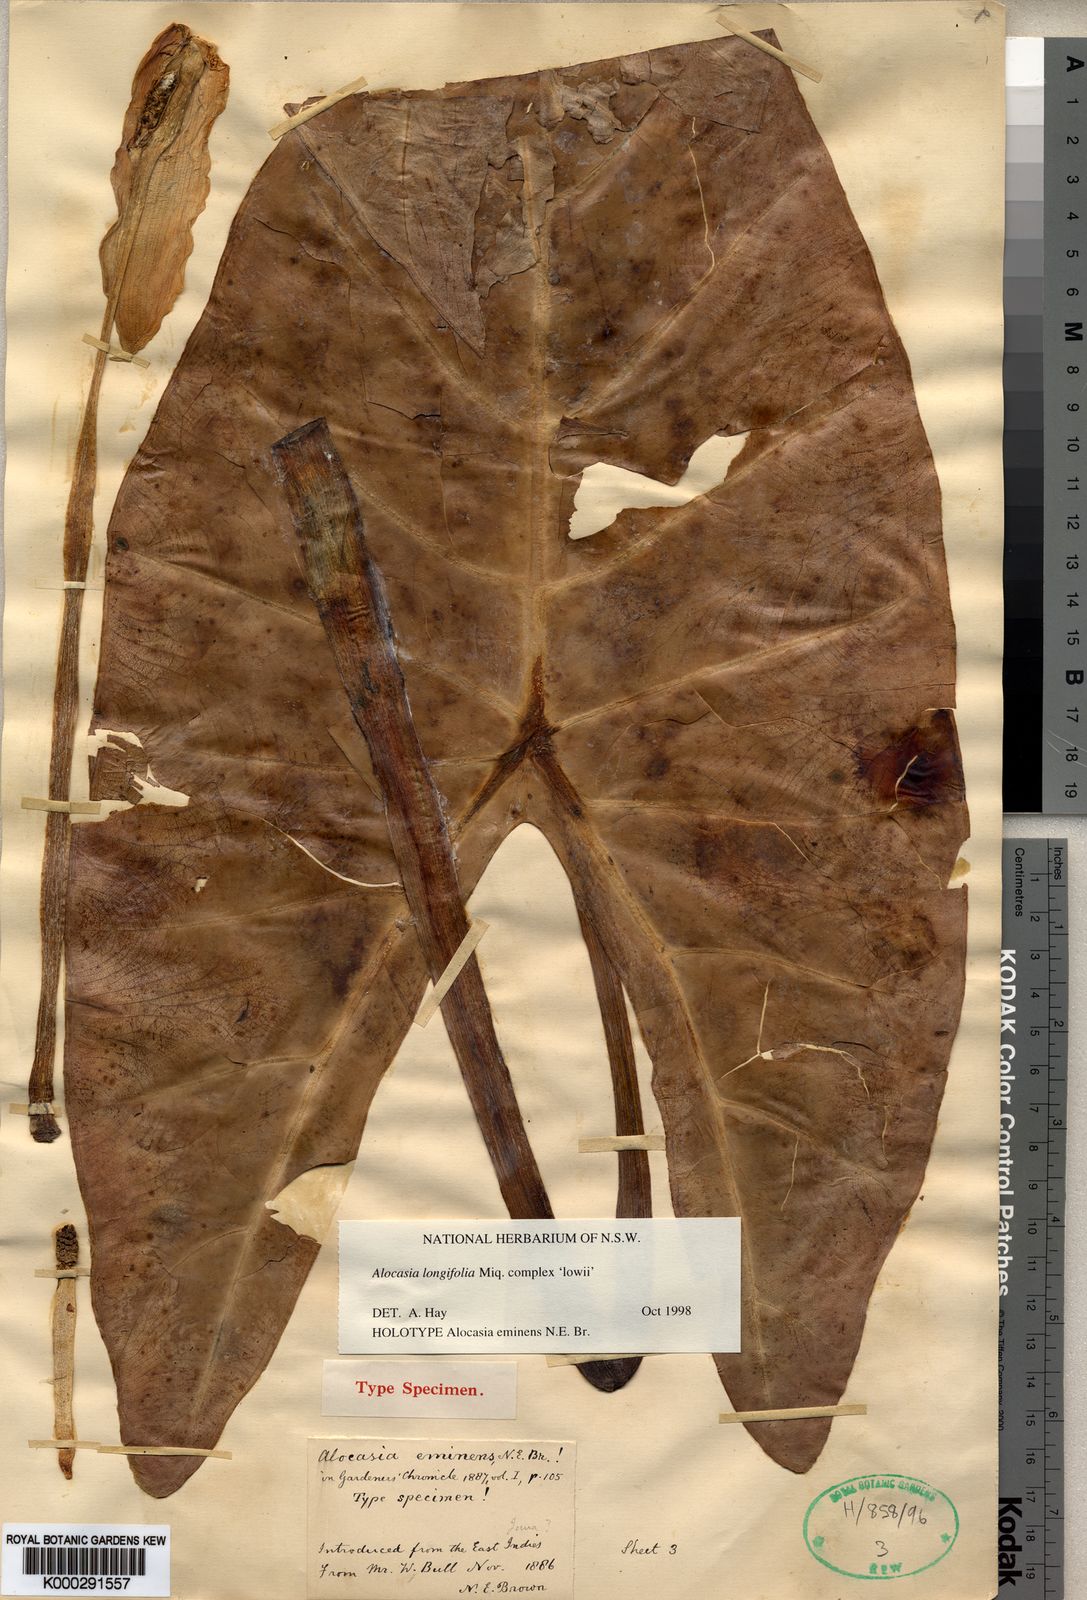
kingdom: Plantae
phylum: Tracheophyta
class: Liliopsida
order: Alismatales
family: Araceae
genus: Alocasia
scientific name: Alocasia longiloba
